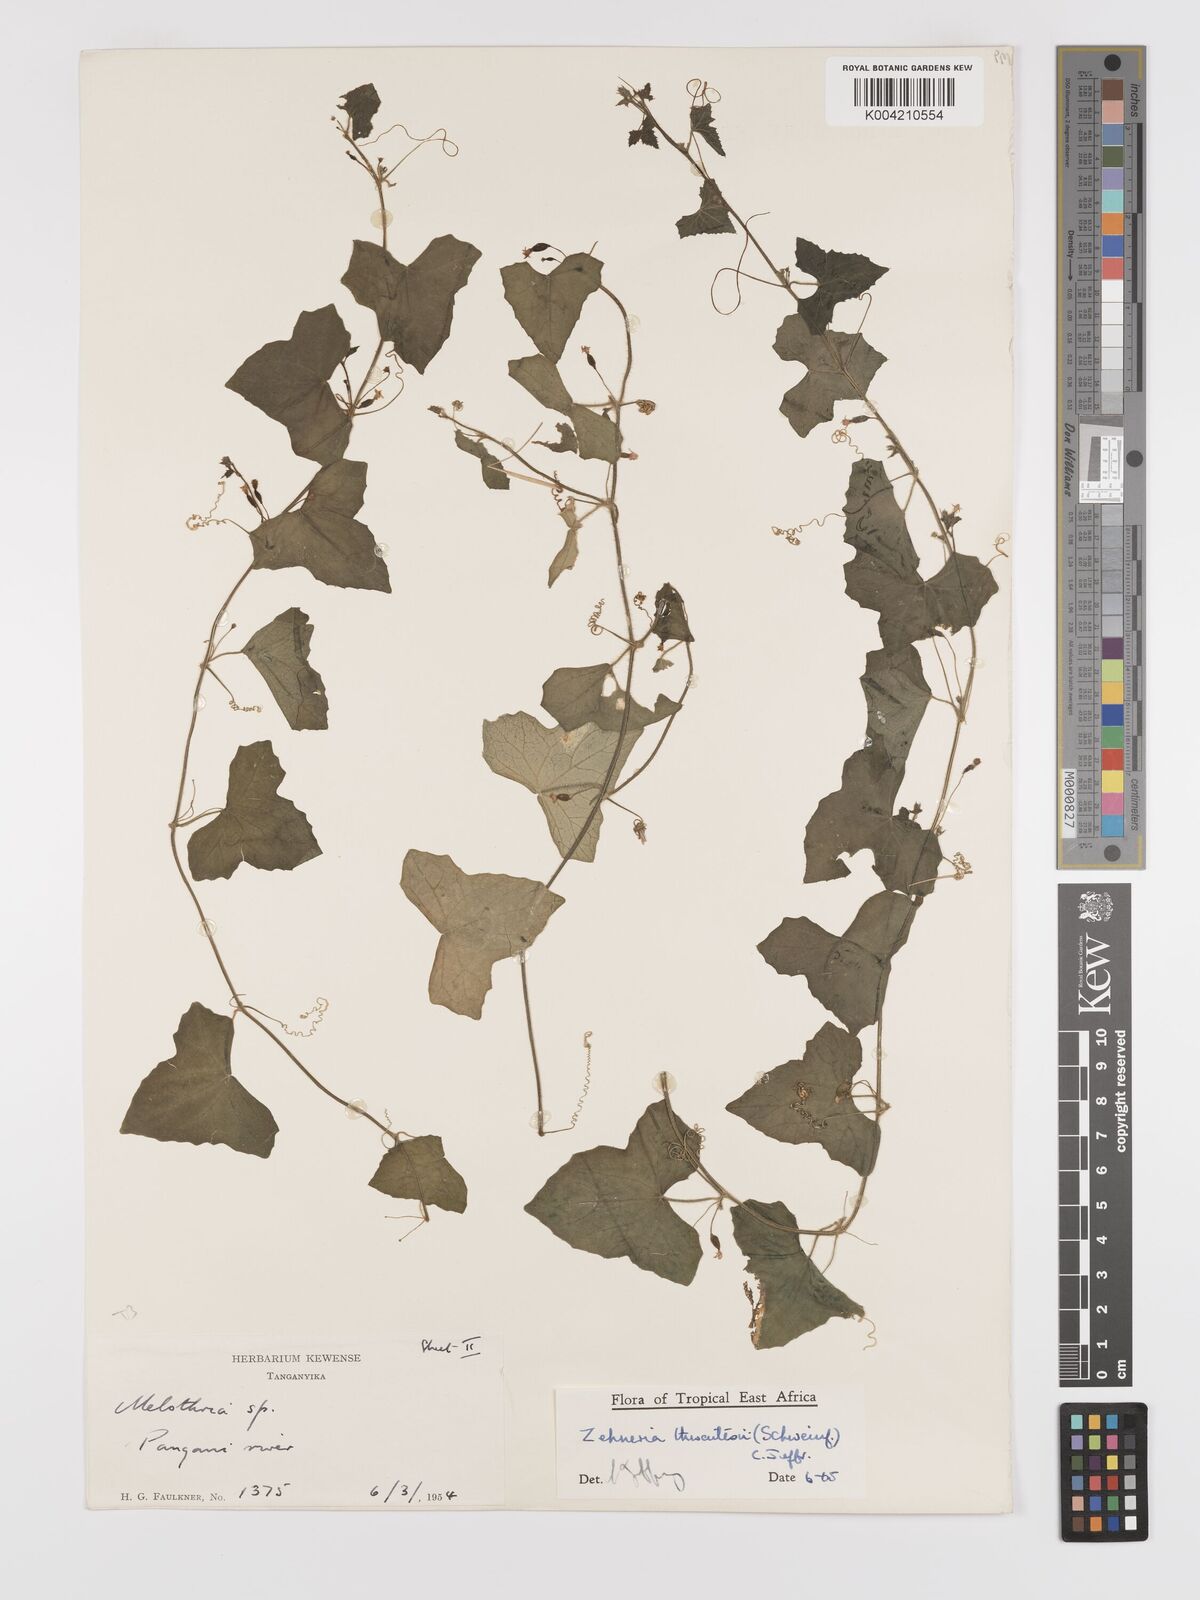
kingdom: Plantae
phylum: Tracheophyta
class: Magnoliopsida
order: Cucurbitales
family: Cucurbitaceae
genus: Zehneria
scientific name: Zehneria thwaitesii
